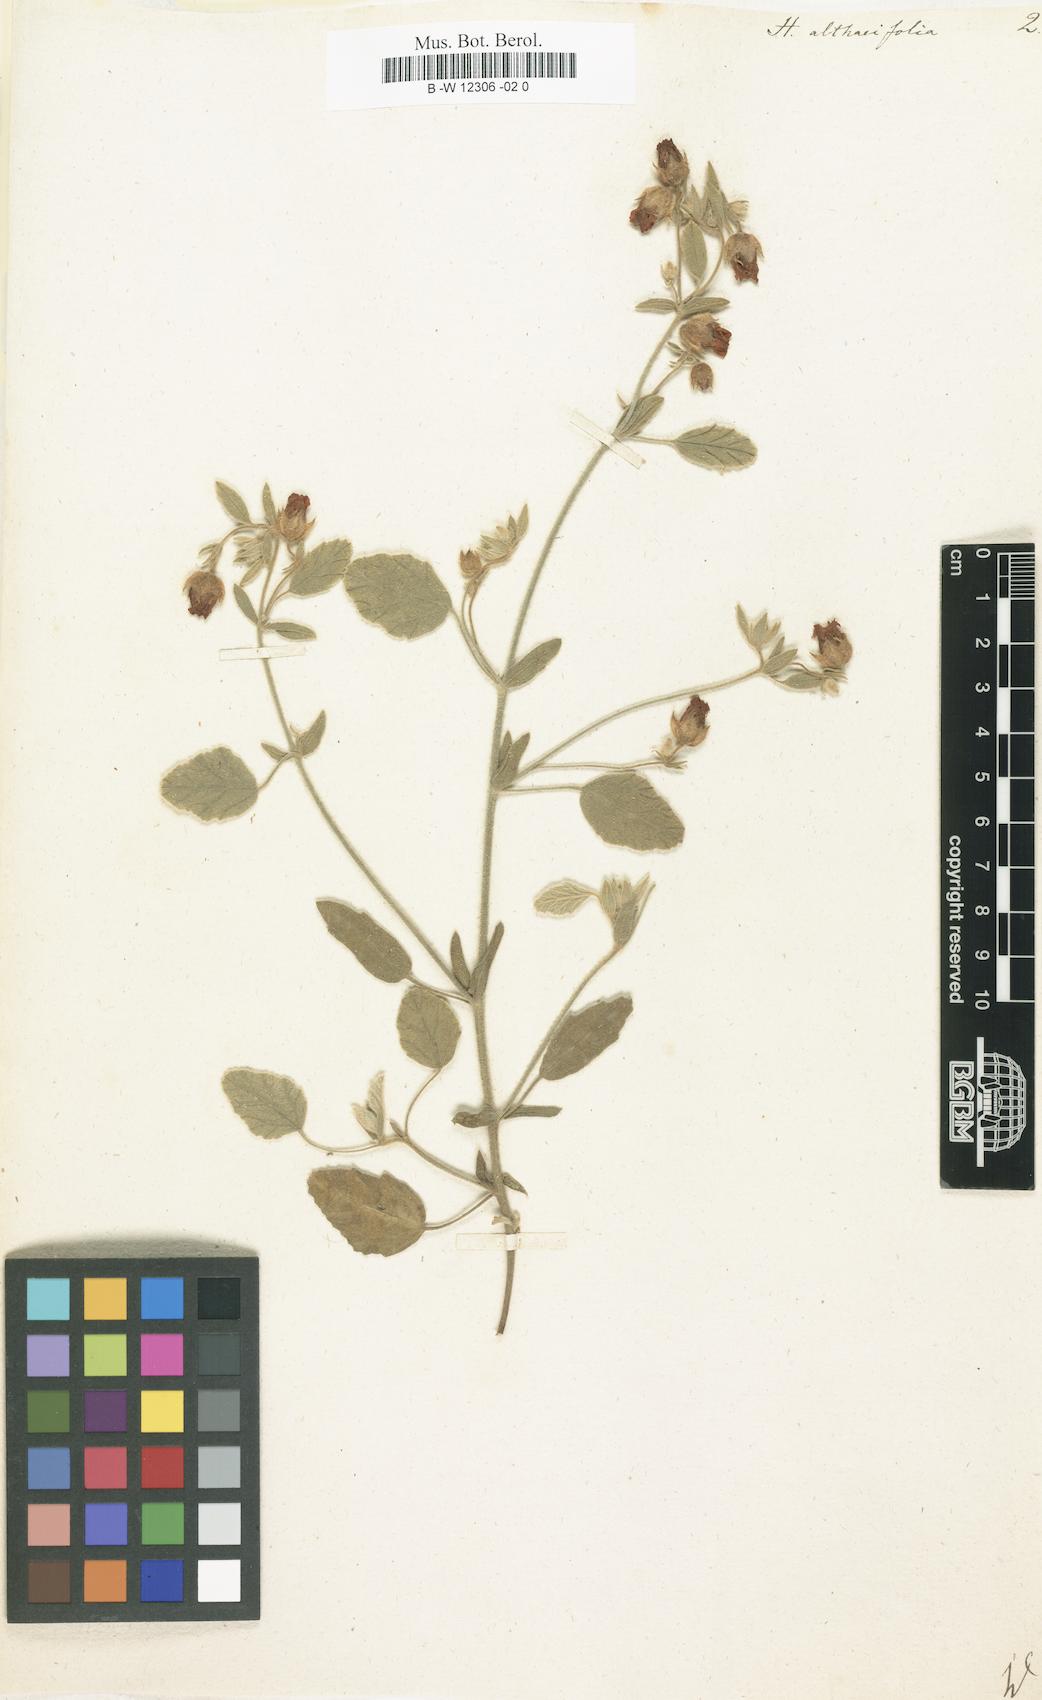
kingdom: Plantae
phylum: Tracheophyta
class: Magnoliopsida
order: Malvales
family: Malvaceae
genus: Hermannia
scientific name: Hermannia althaeifolia
